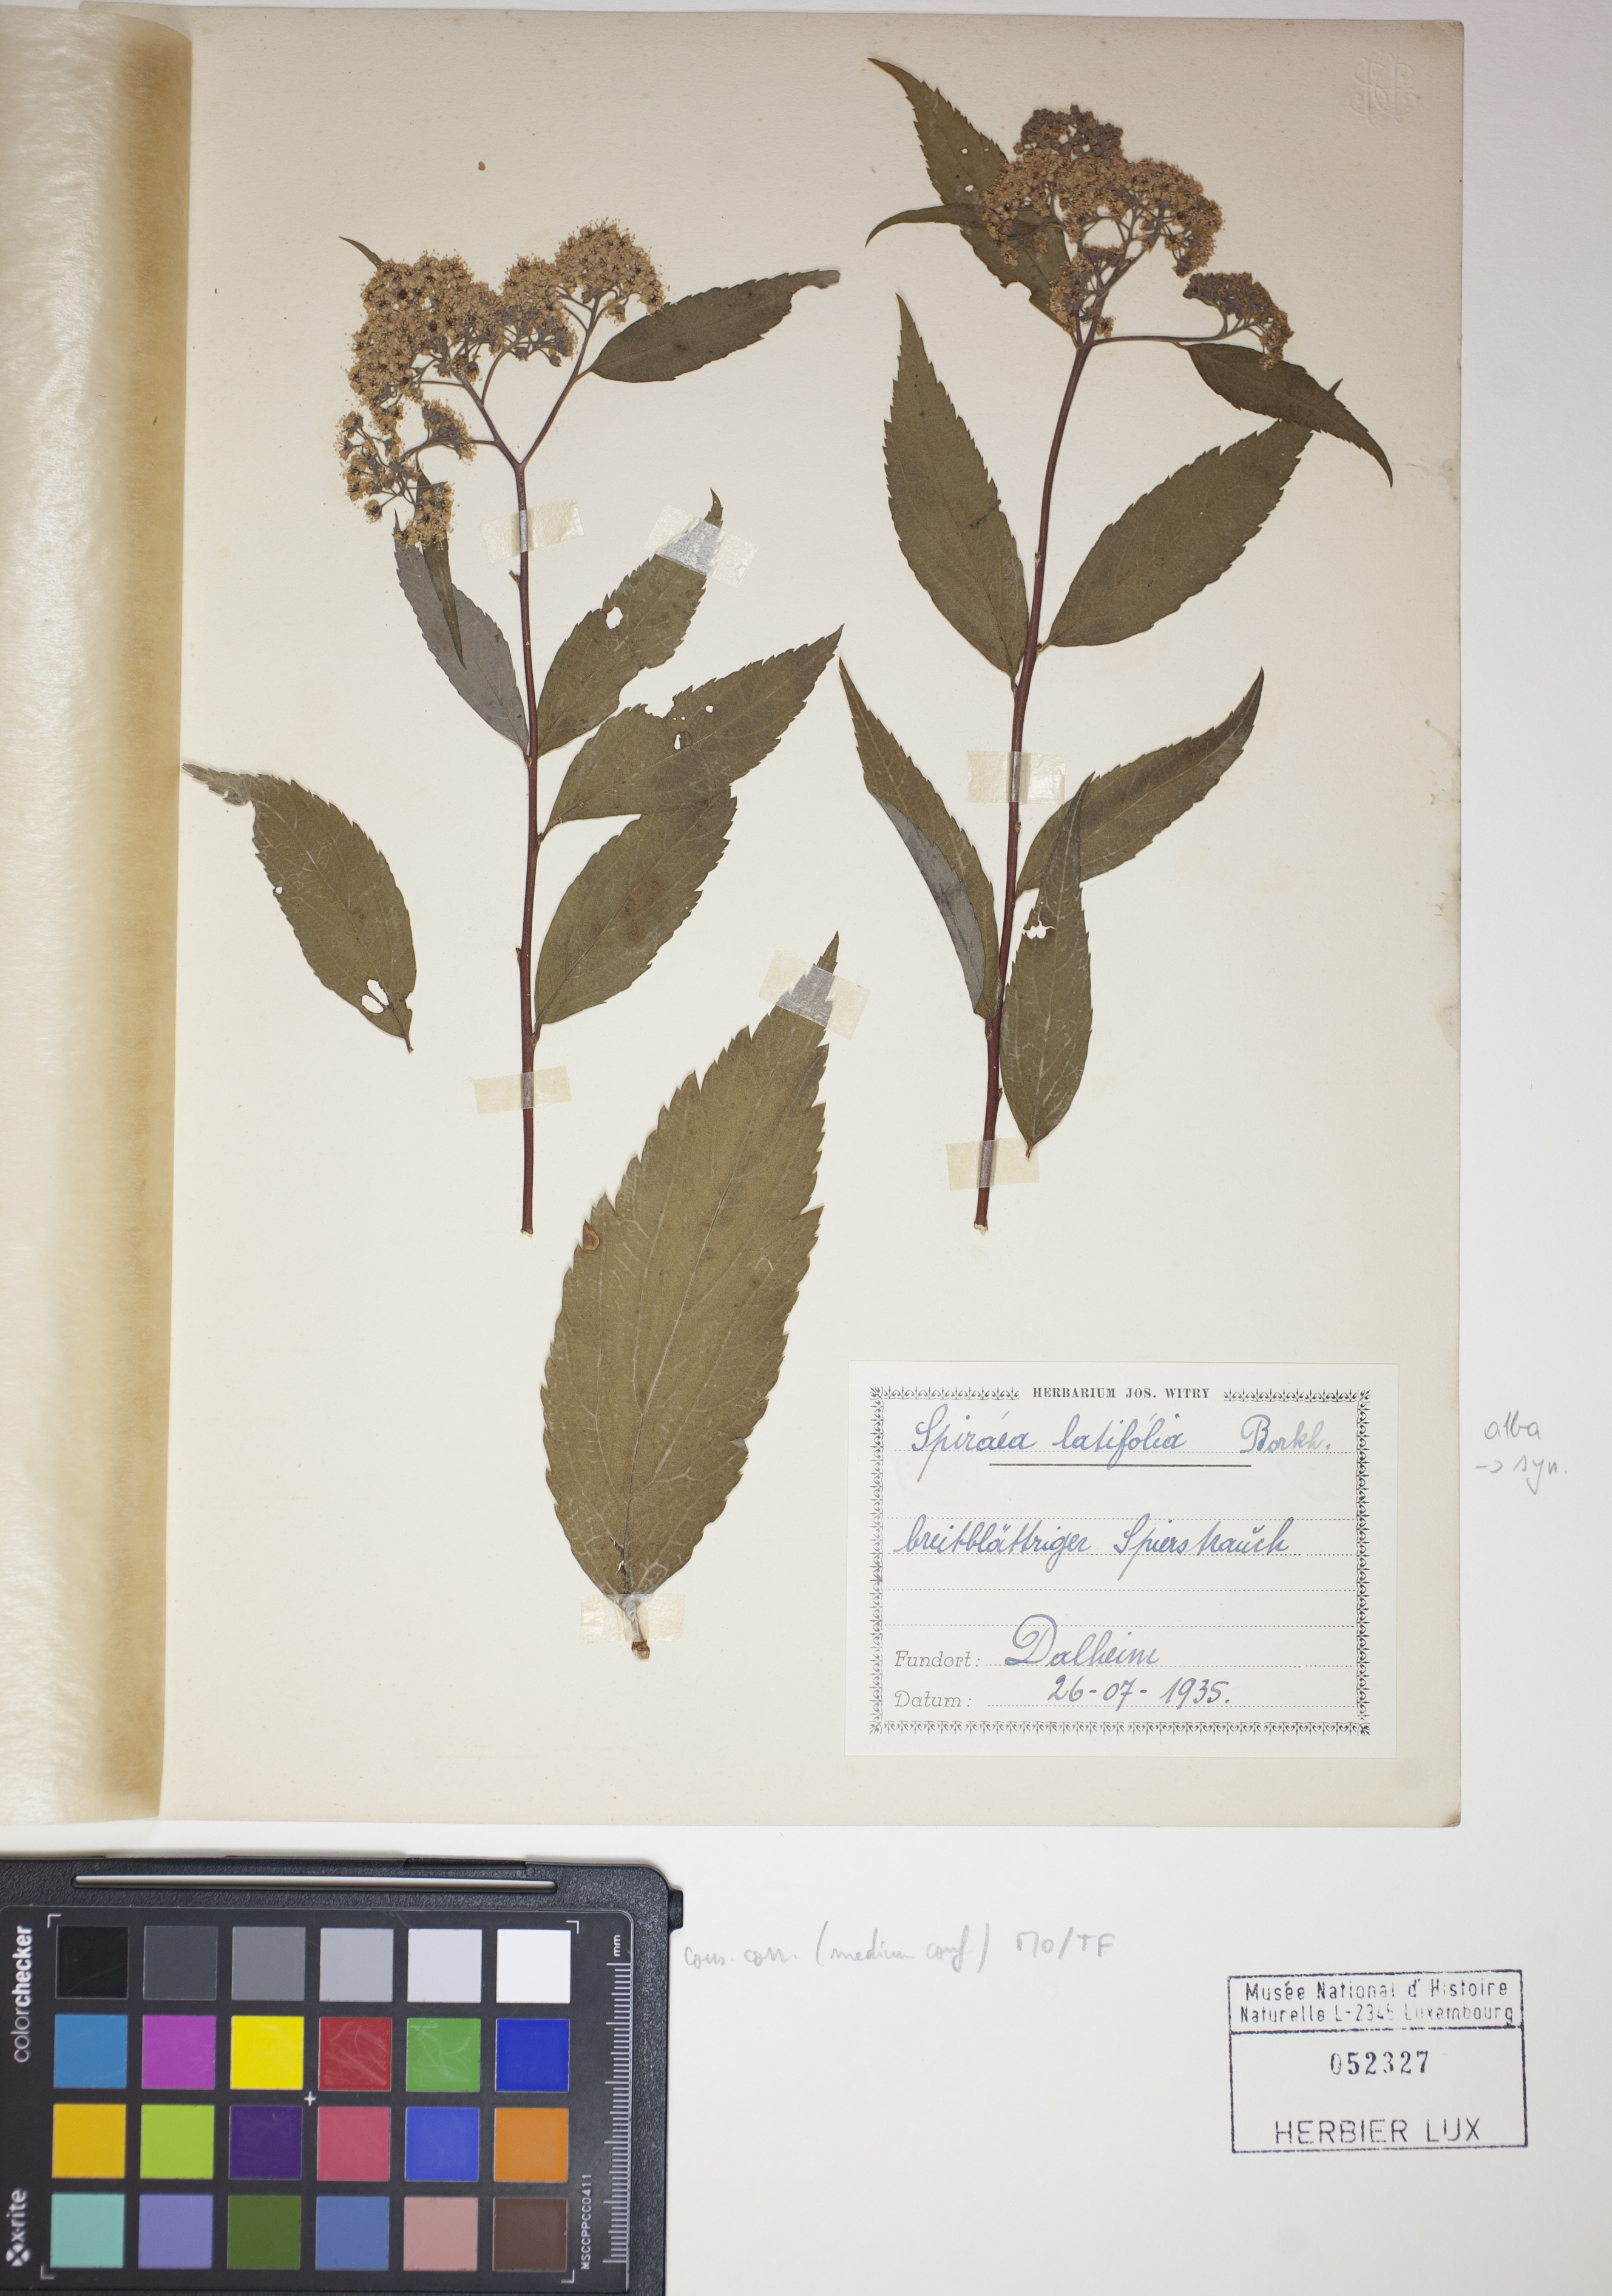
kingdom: Plantae
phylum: Tracheophyta
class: Magnoliopsida
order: Rosales
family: Rosaceae
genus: Spiraea
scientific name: Spiraea alba
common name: Pale bridewort
